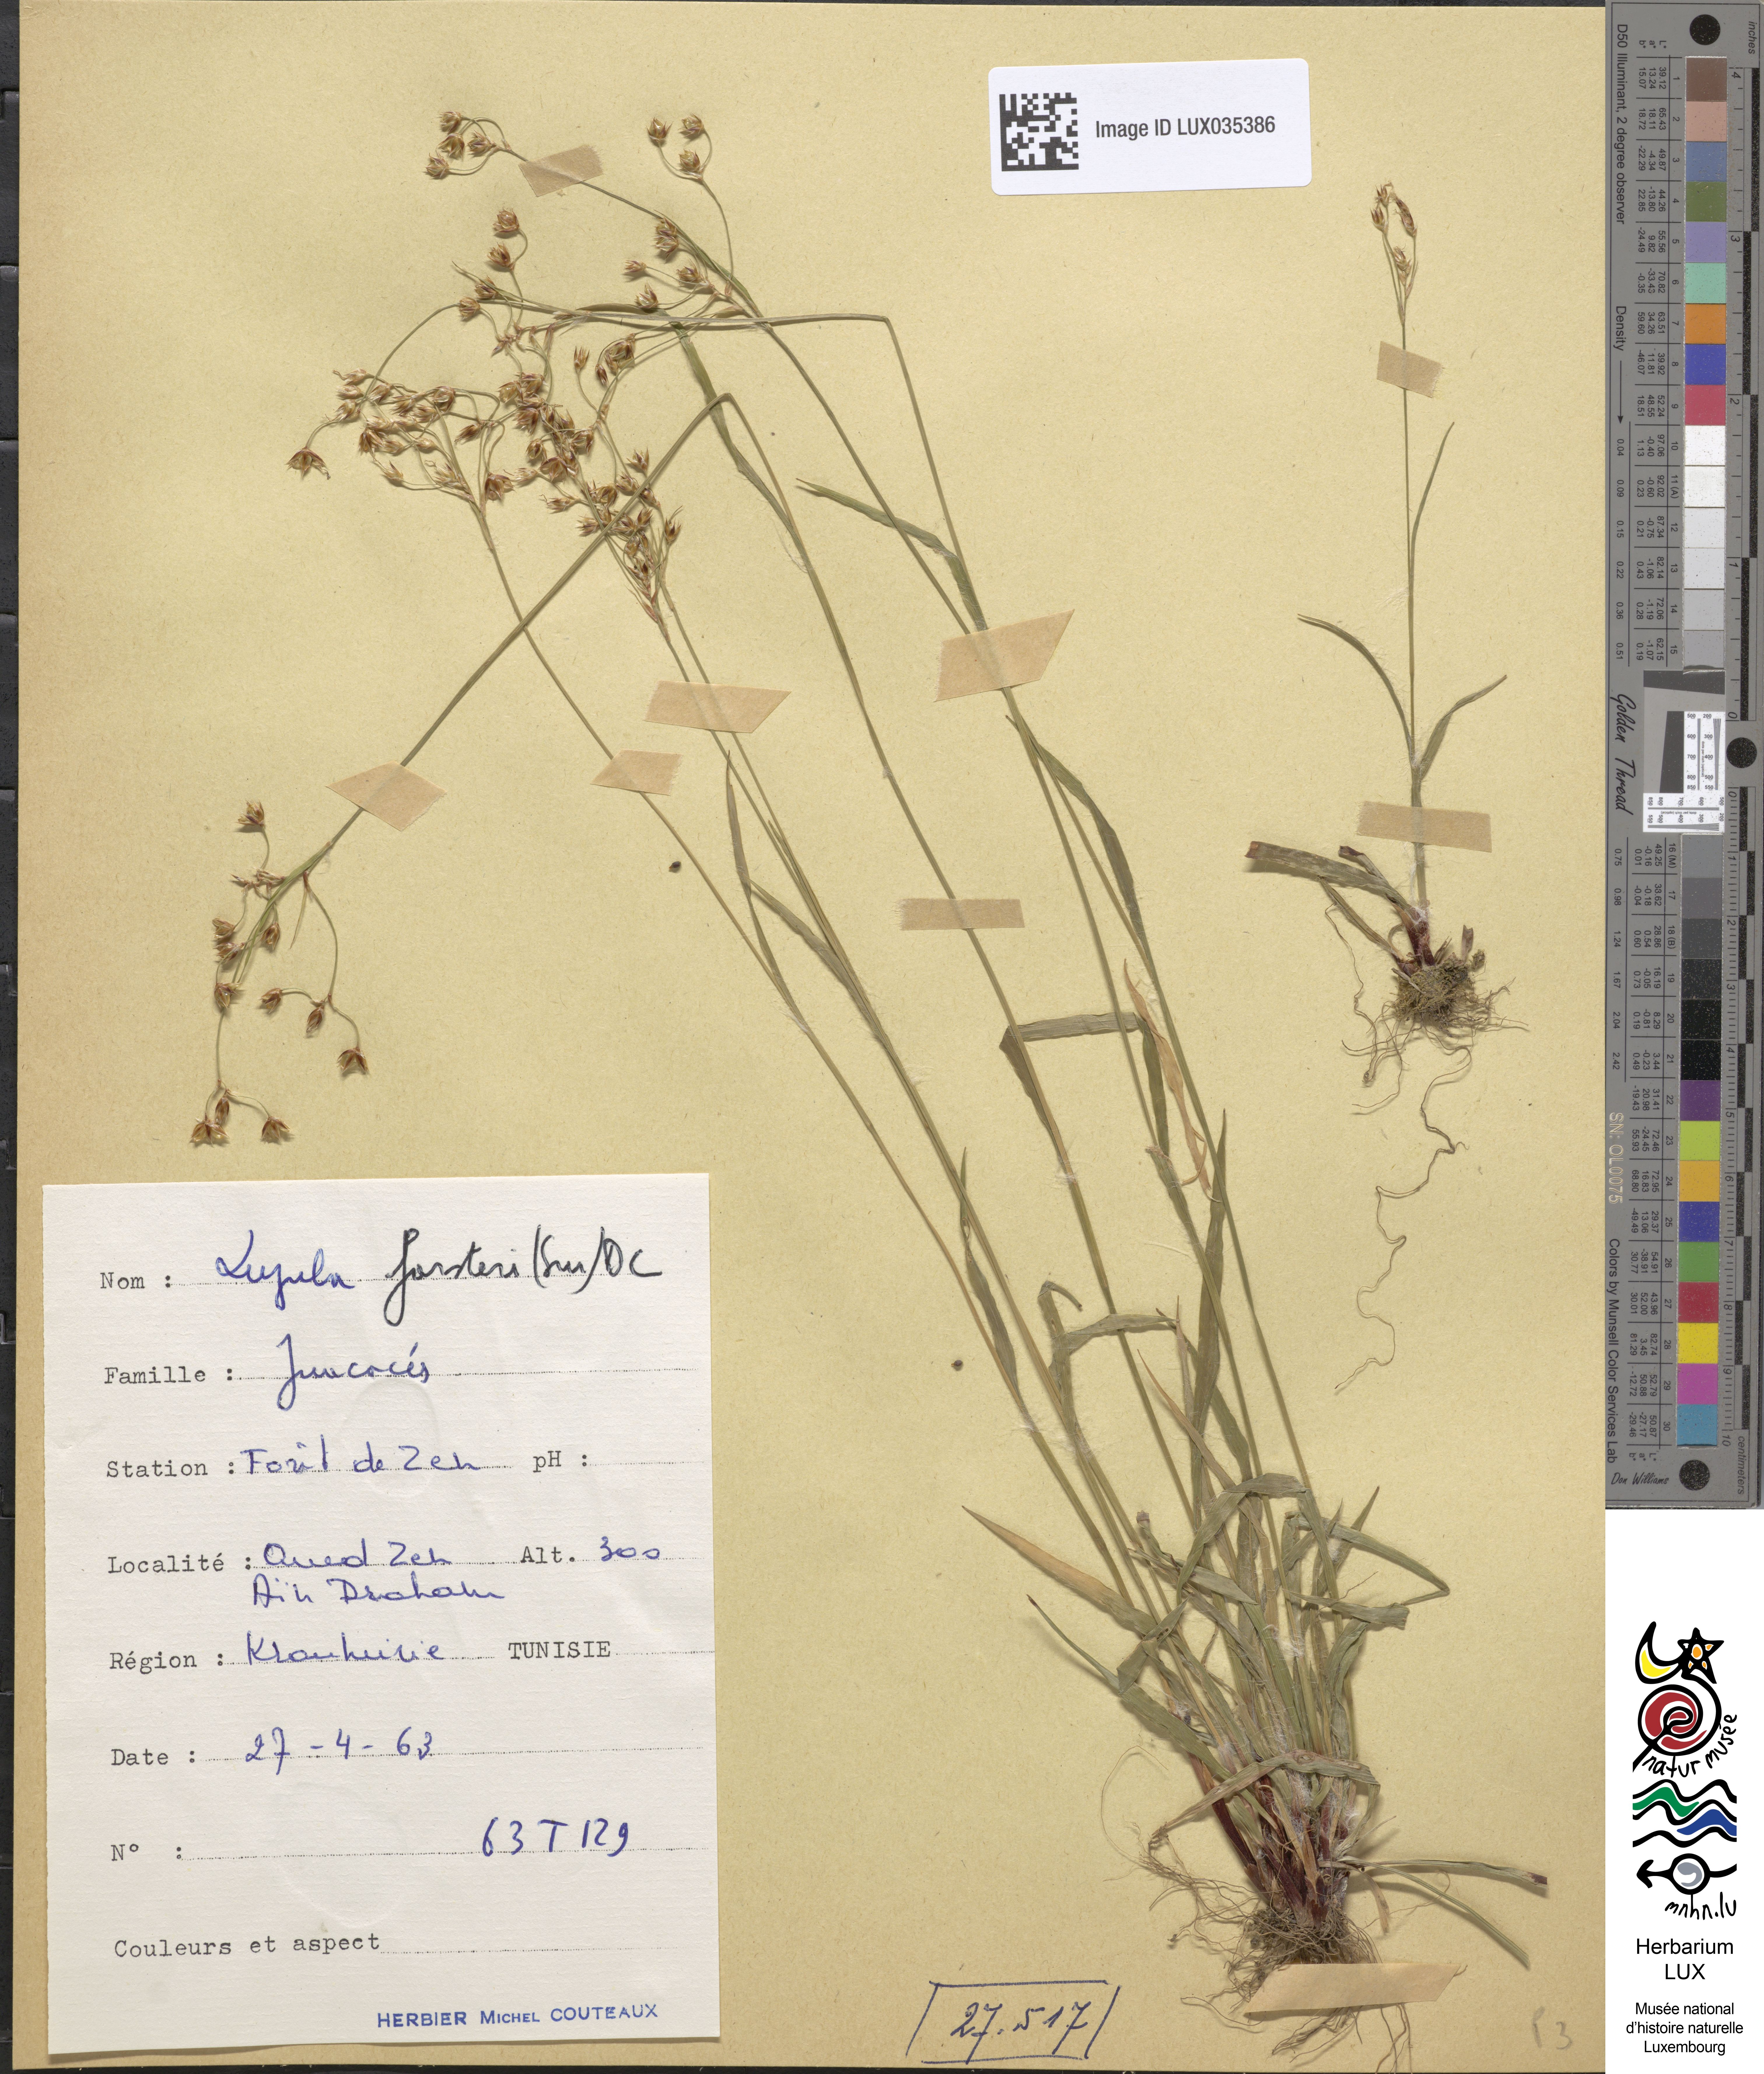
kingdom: Plantae
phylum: Tracheophyta
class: Liliopsida
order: Poales
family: Juncaceae
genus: Luzula
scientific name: Luzula forsteri
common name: Southern wood-rush
